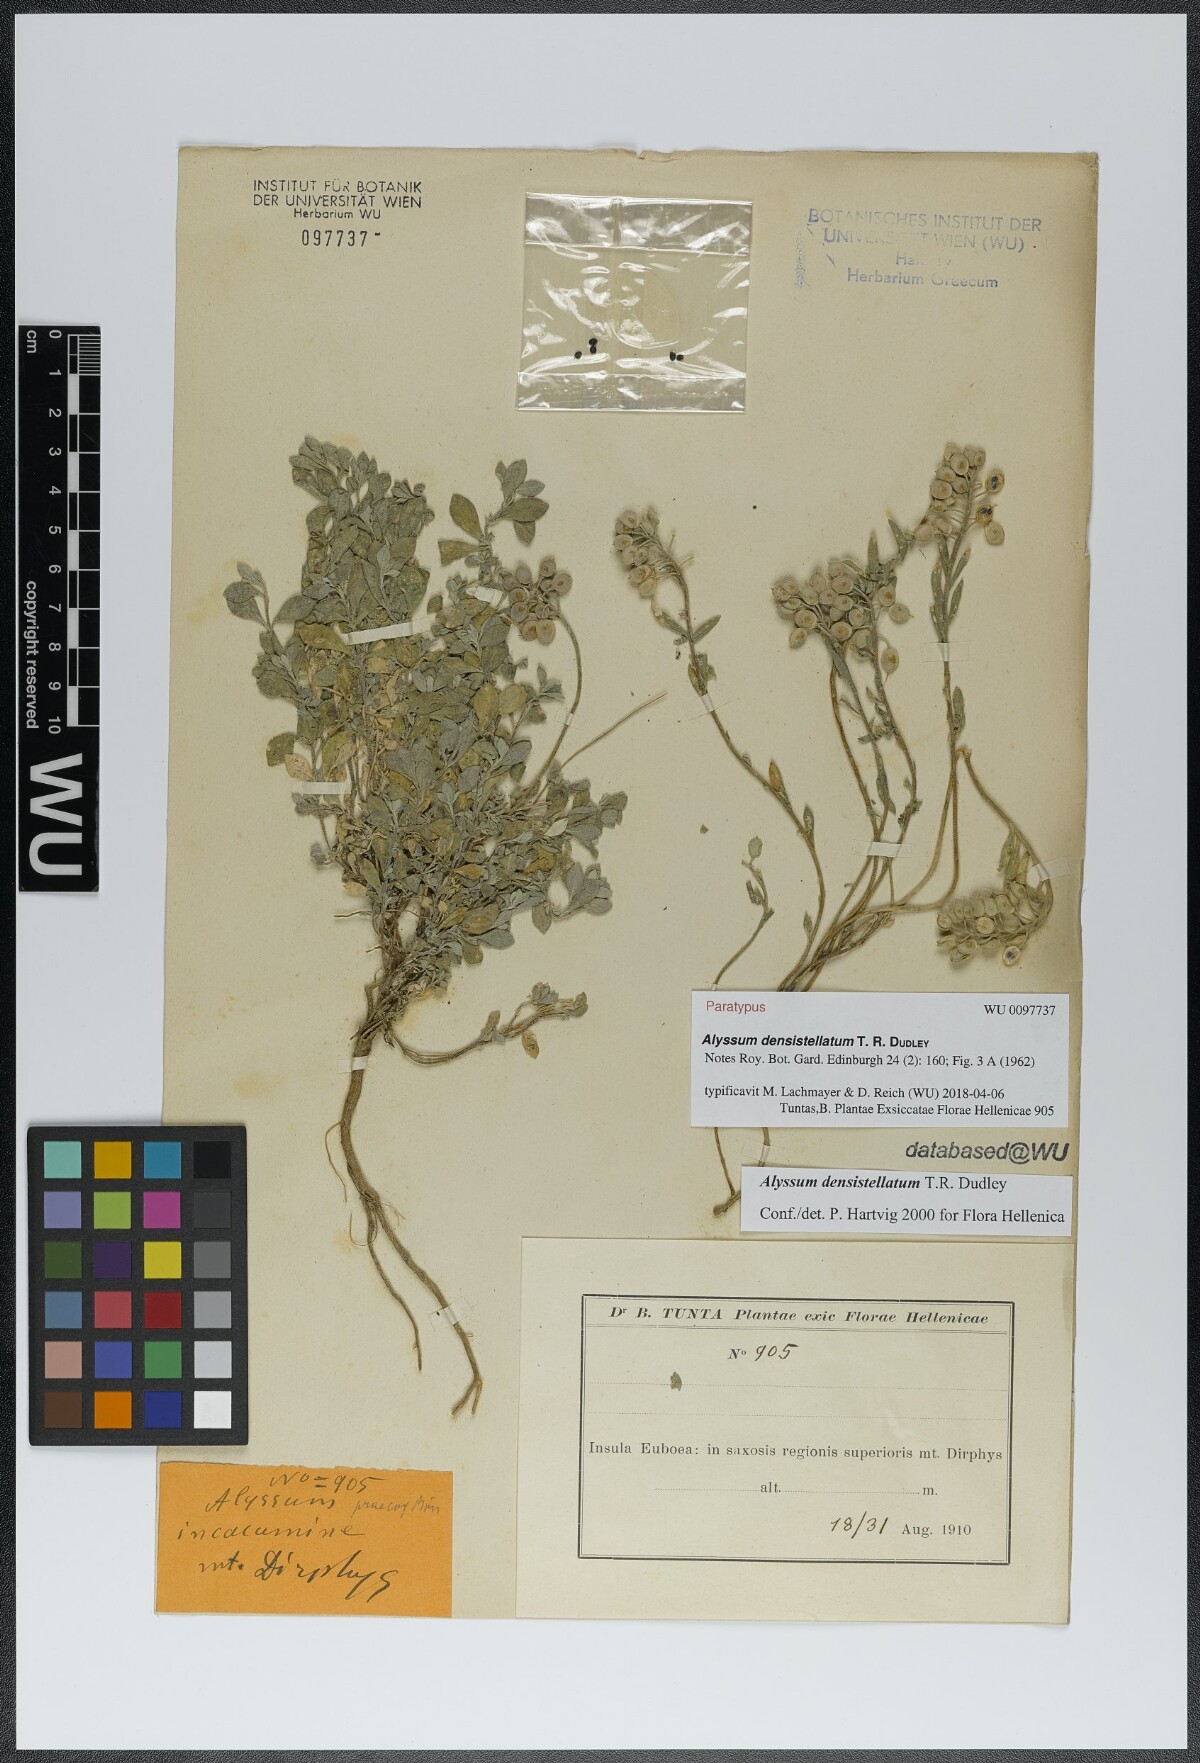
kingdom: Plantae
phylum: Tracheophyta
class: Magnoliopsida
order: Brassicales
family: Brassicaceae
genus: Alyssum
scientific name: Alyssum densistellatum
